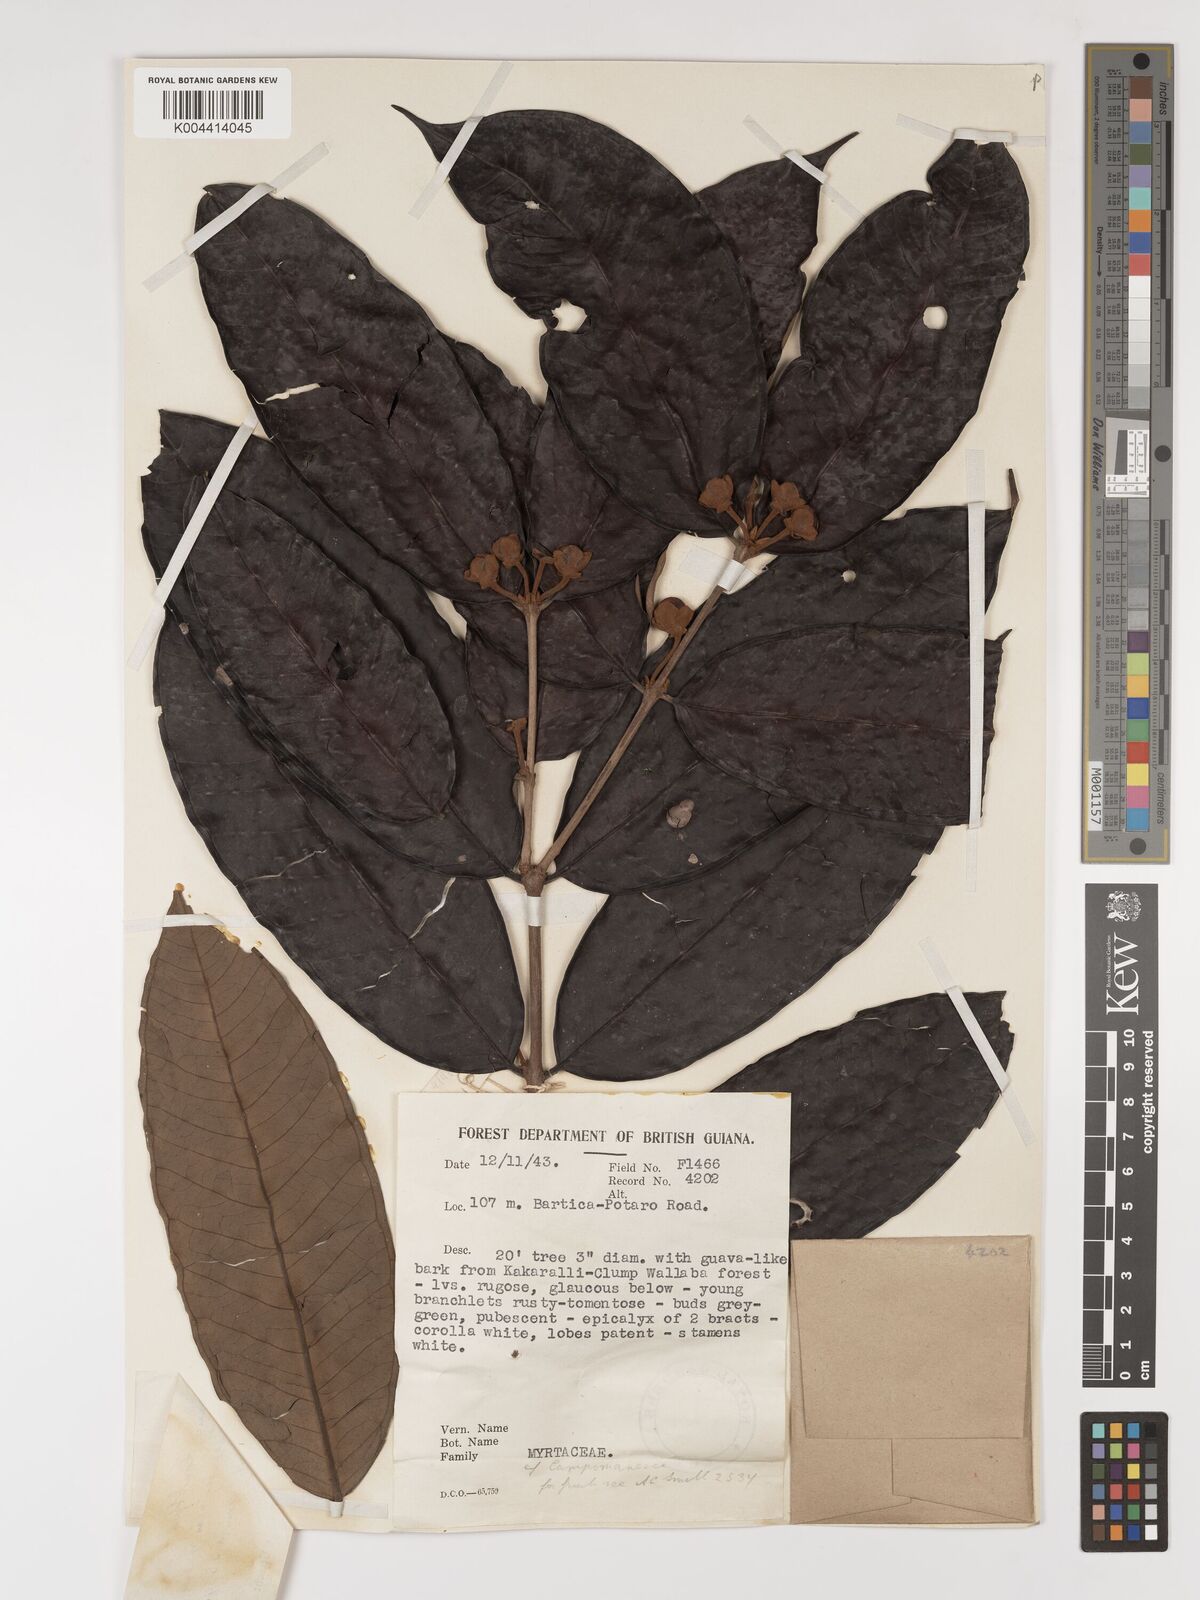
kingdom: Plantae
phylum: Tracheophyta
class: Magnoliopsida
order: Myrtales
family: Myrtaceae
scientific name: Myrtaceae
